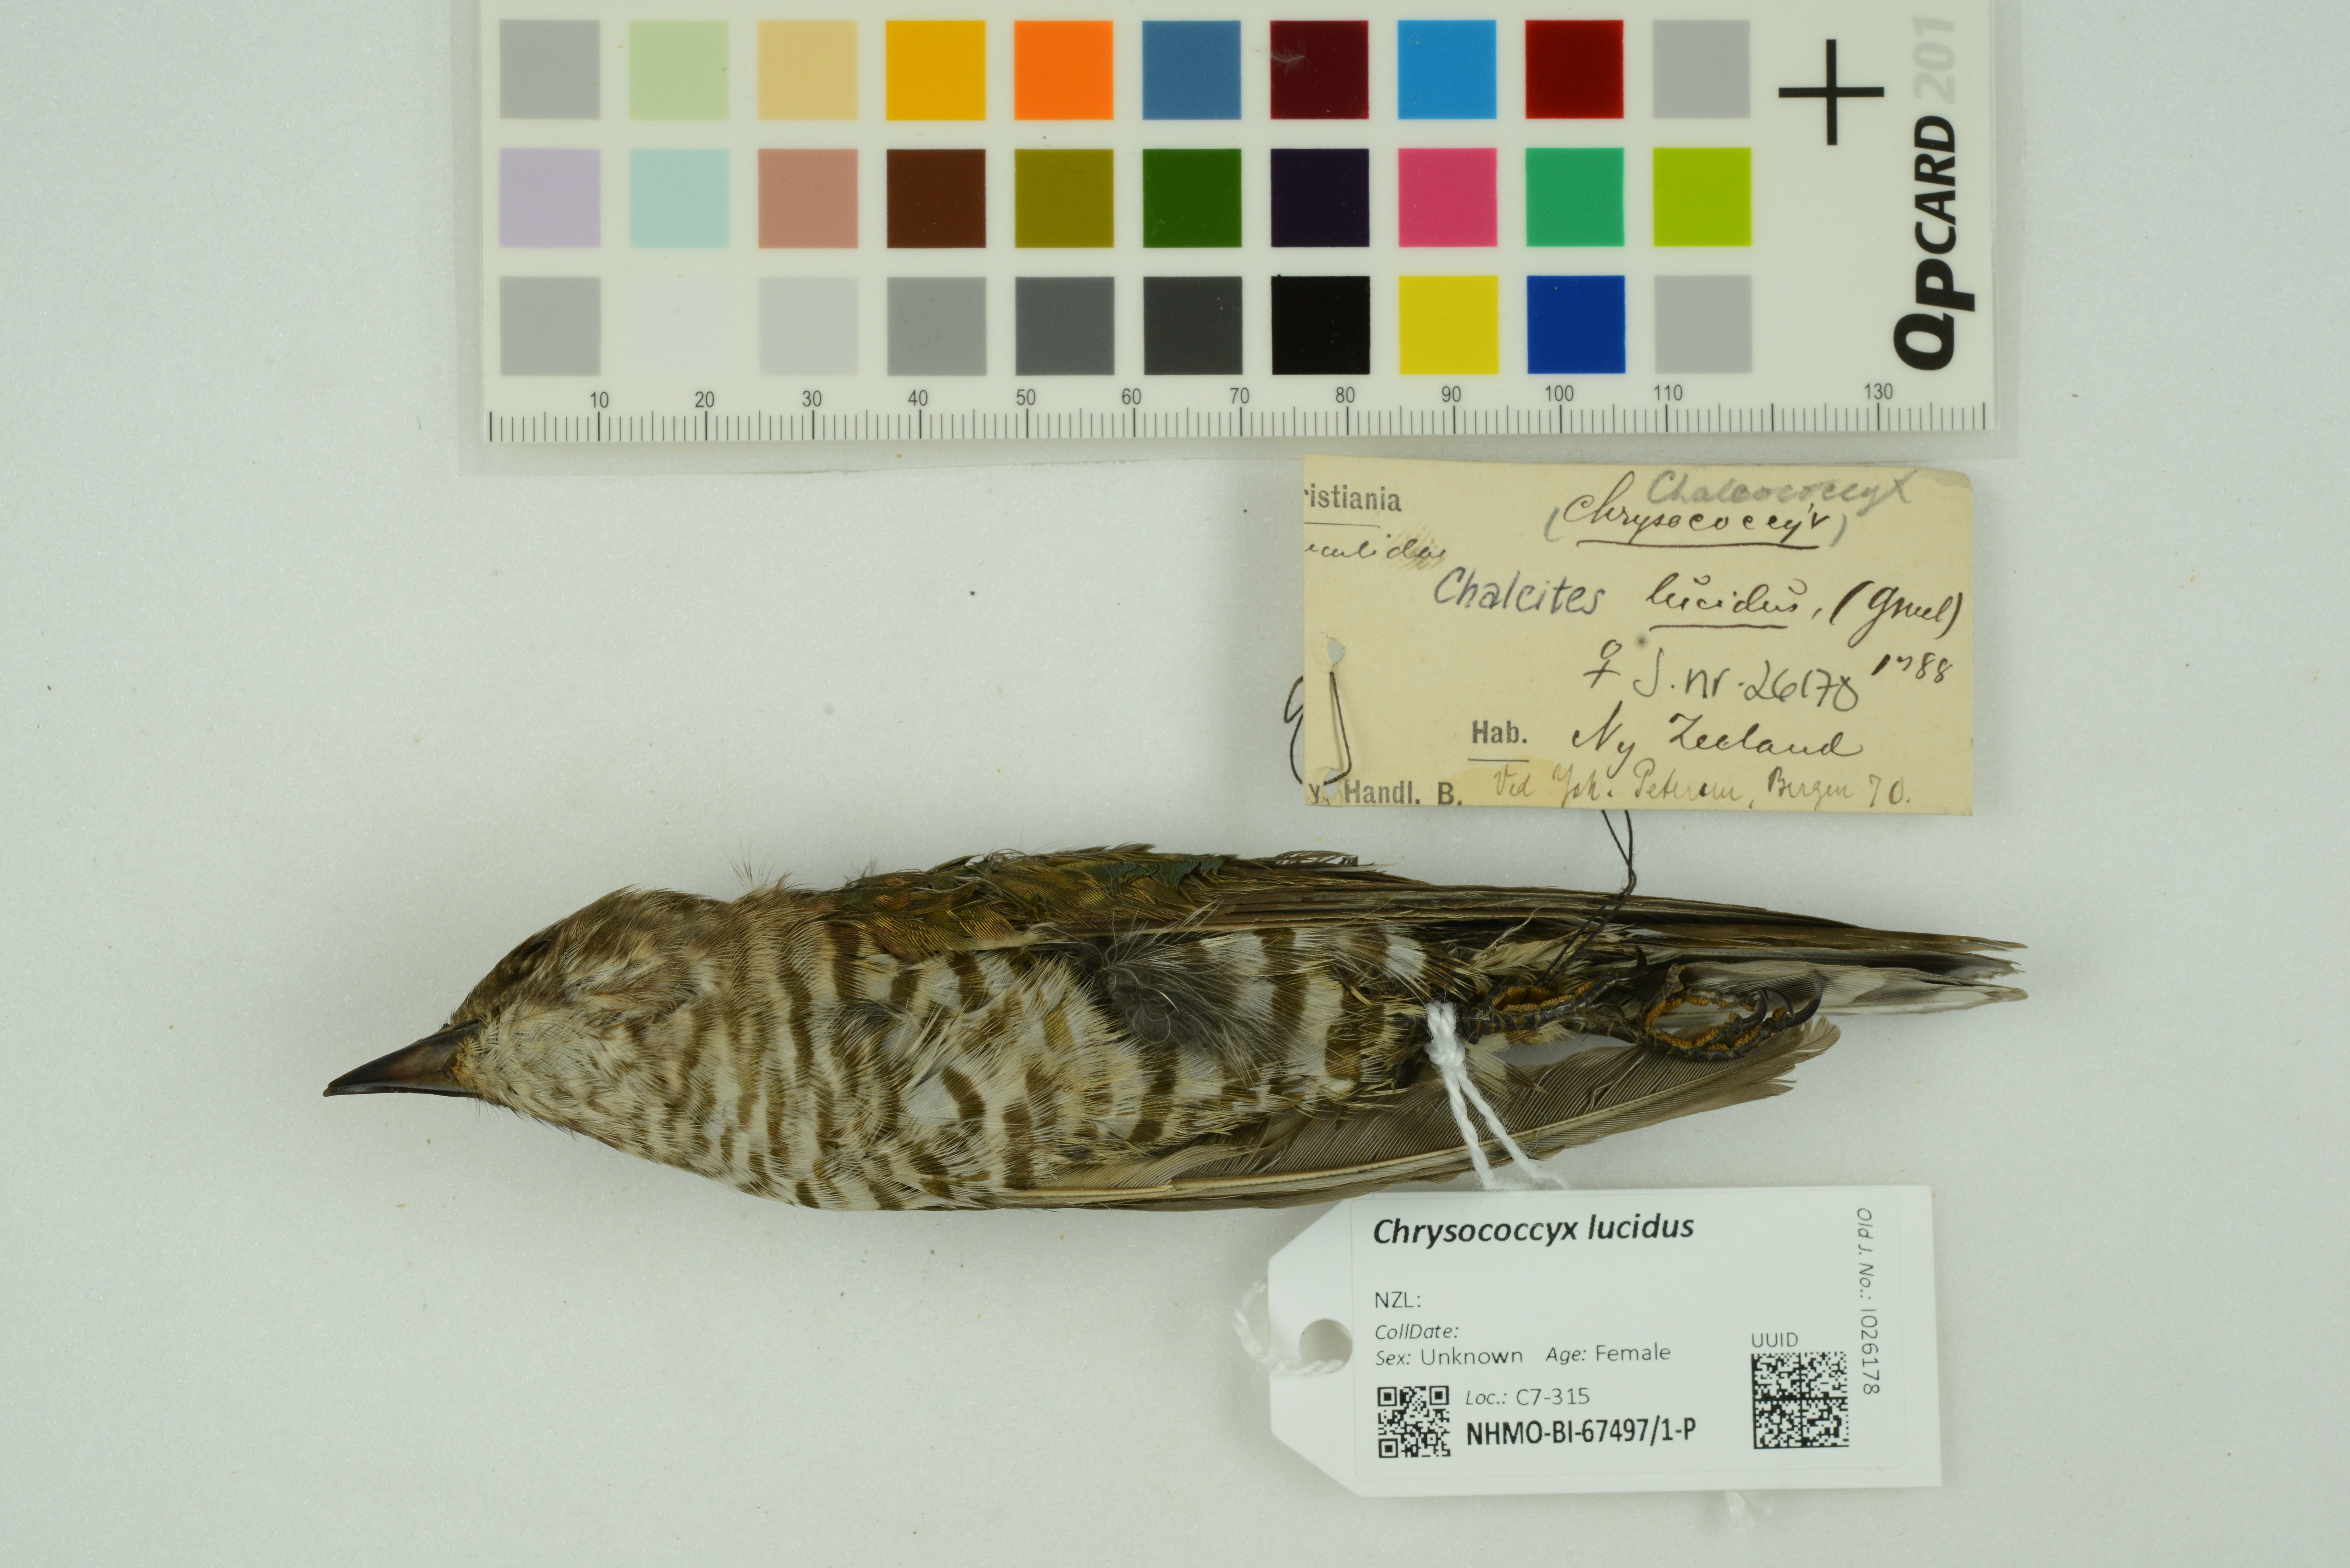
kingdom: Animalia
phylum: Chordata
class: Aves
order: Cuculiformes
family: Cuculidae
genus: Chrysococcyx
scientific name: Chrysococcyx lucidus
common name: Shining bronze cuckoo
